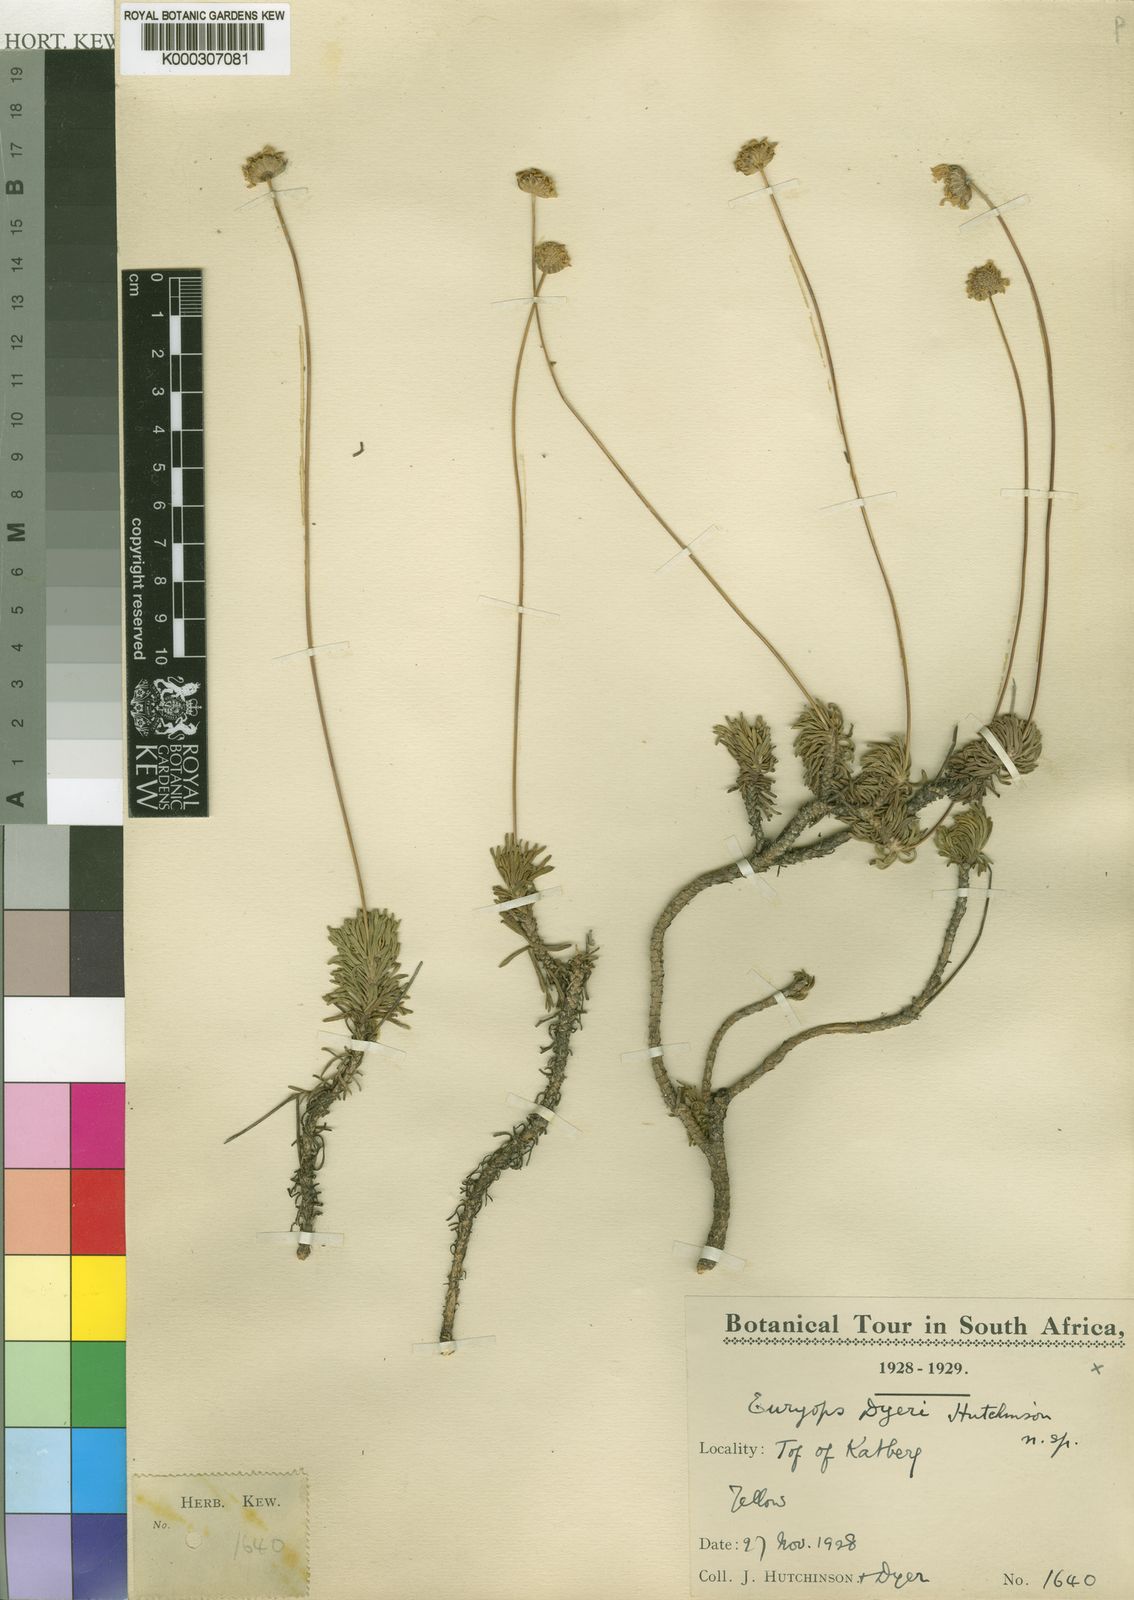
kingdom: Plantae
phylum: Tracheophyta
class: Magnoliopsida
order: Asterales
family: Asteraceae
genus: Euryops
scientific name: Euryops dyeri
